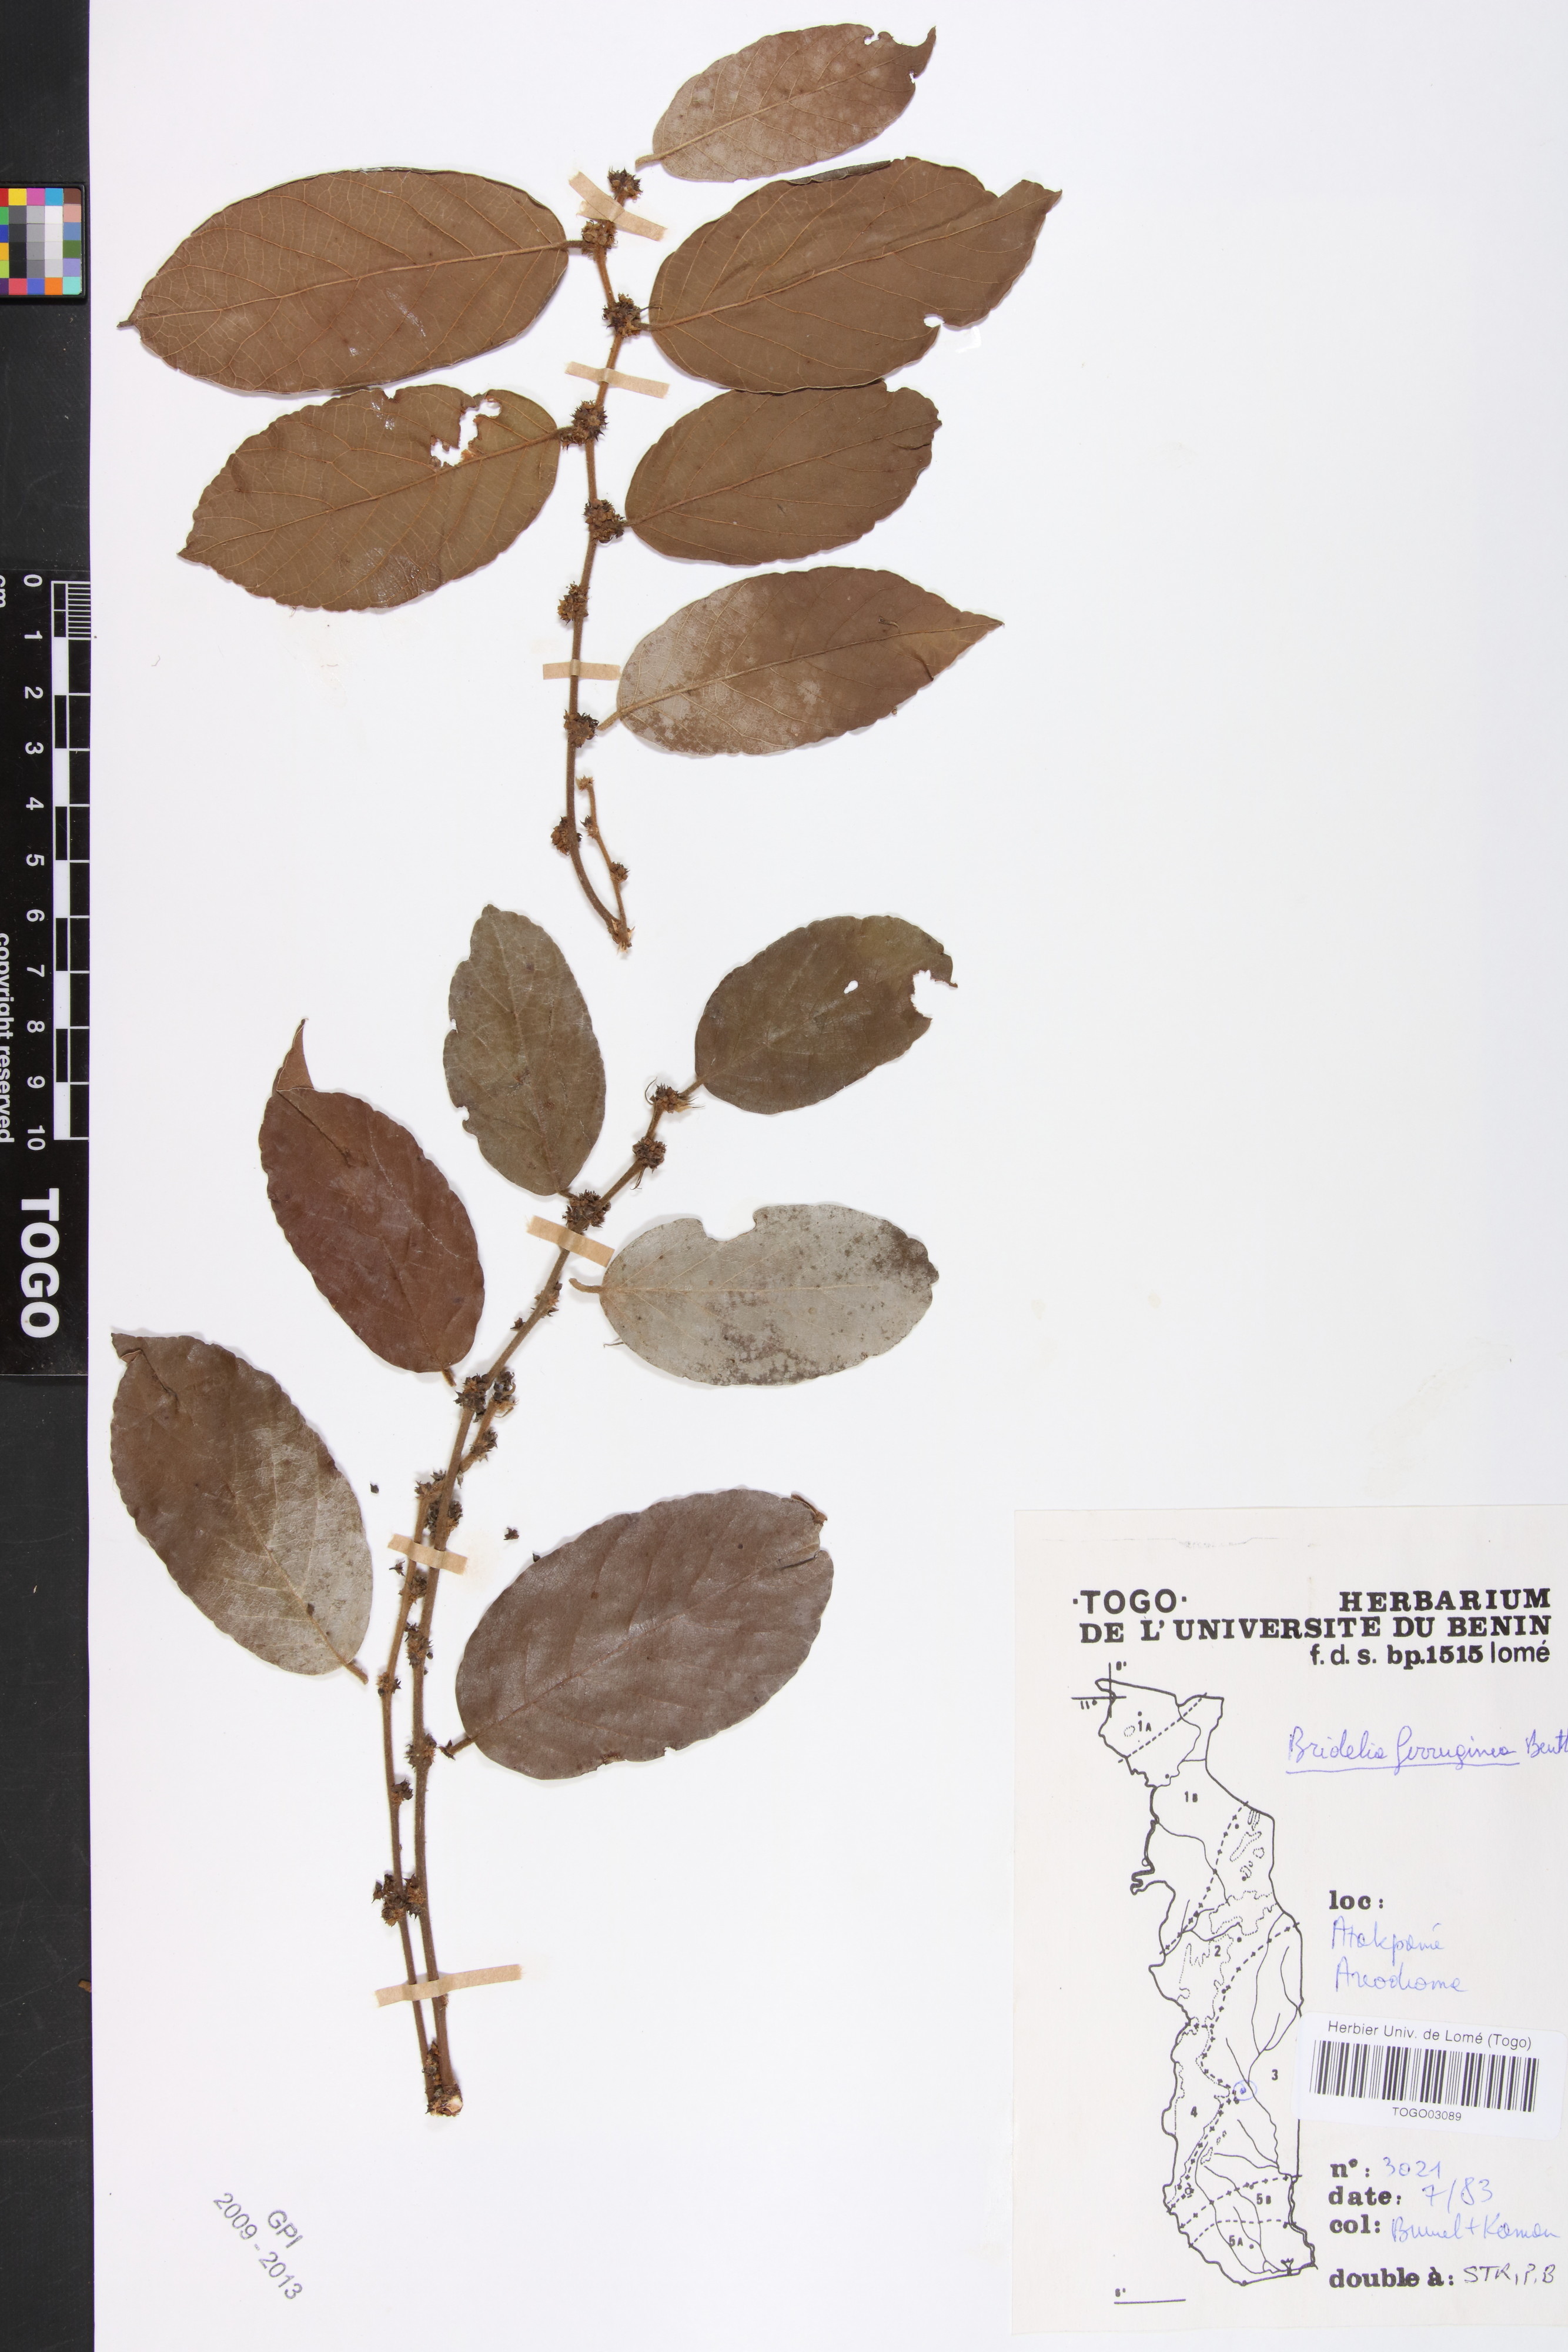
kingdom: Plantae
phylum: Tracheophyta
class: Magnoliopsida
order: Malpighiales
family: Phyllanthaceae
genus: Bridelia
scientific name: Bridelia ferruginea
